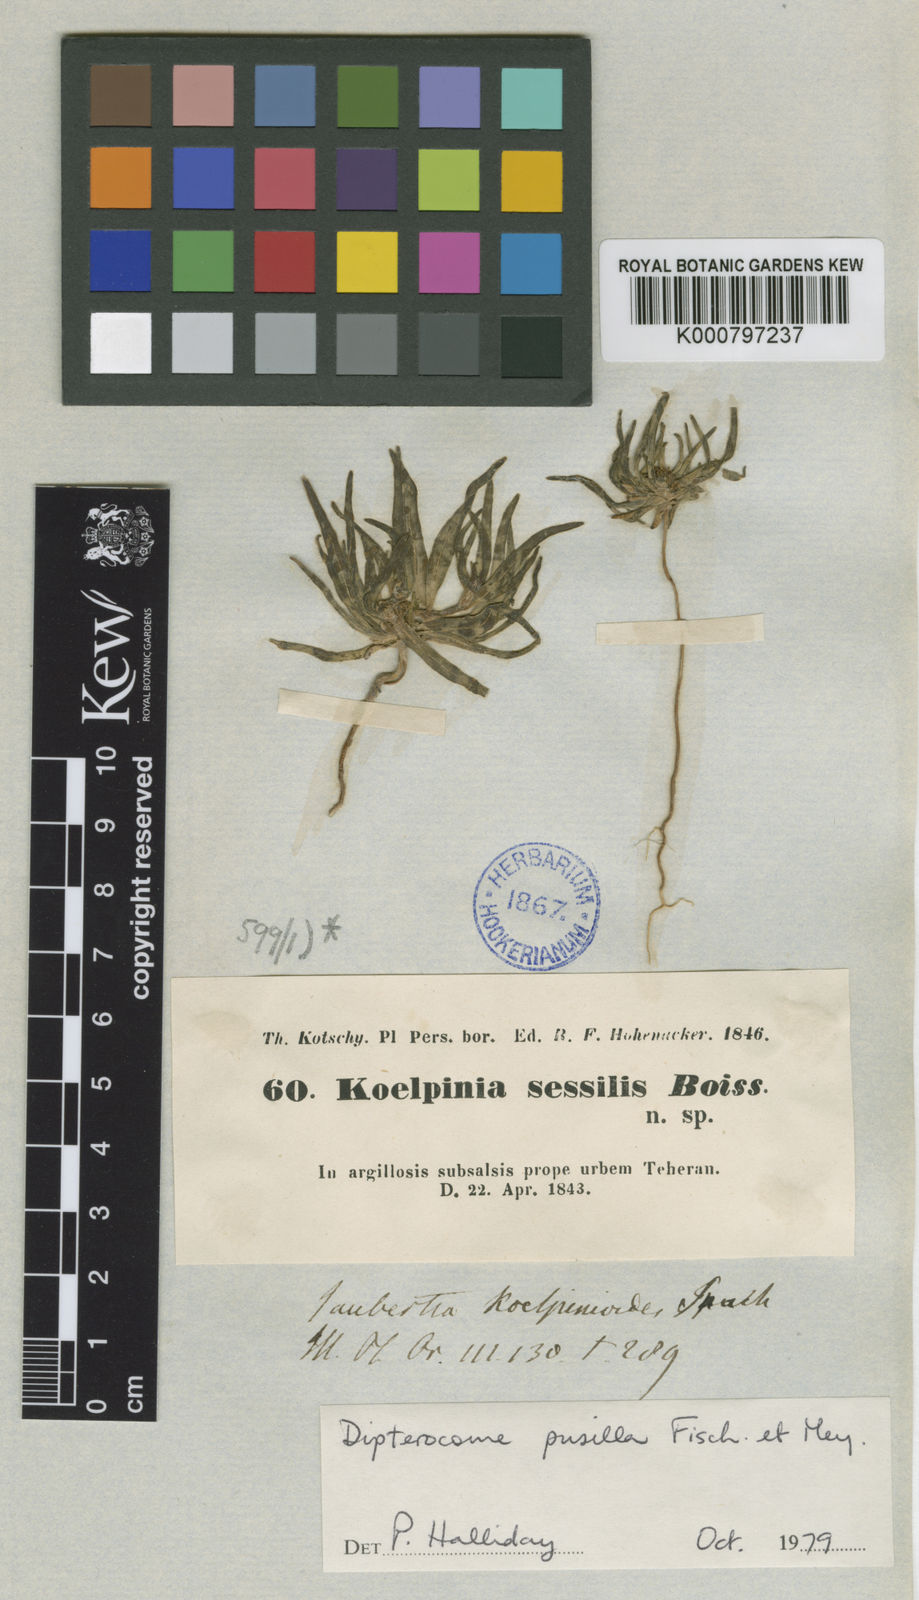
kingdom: Plantae
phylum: Tracheophyta
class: Magnoliopsida
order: Asterales
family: Asteraceae
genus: Dipterocome
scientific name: Dipterocome pusilla
